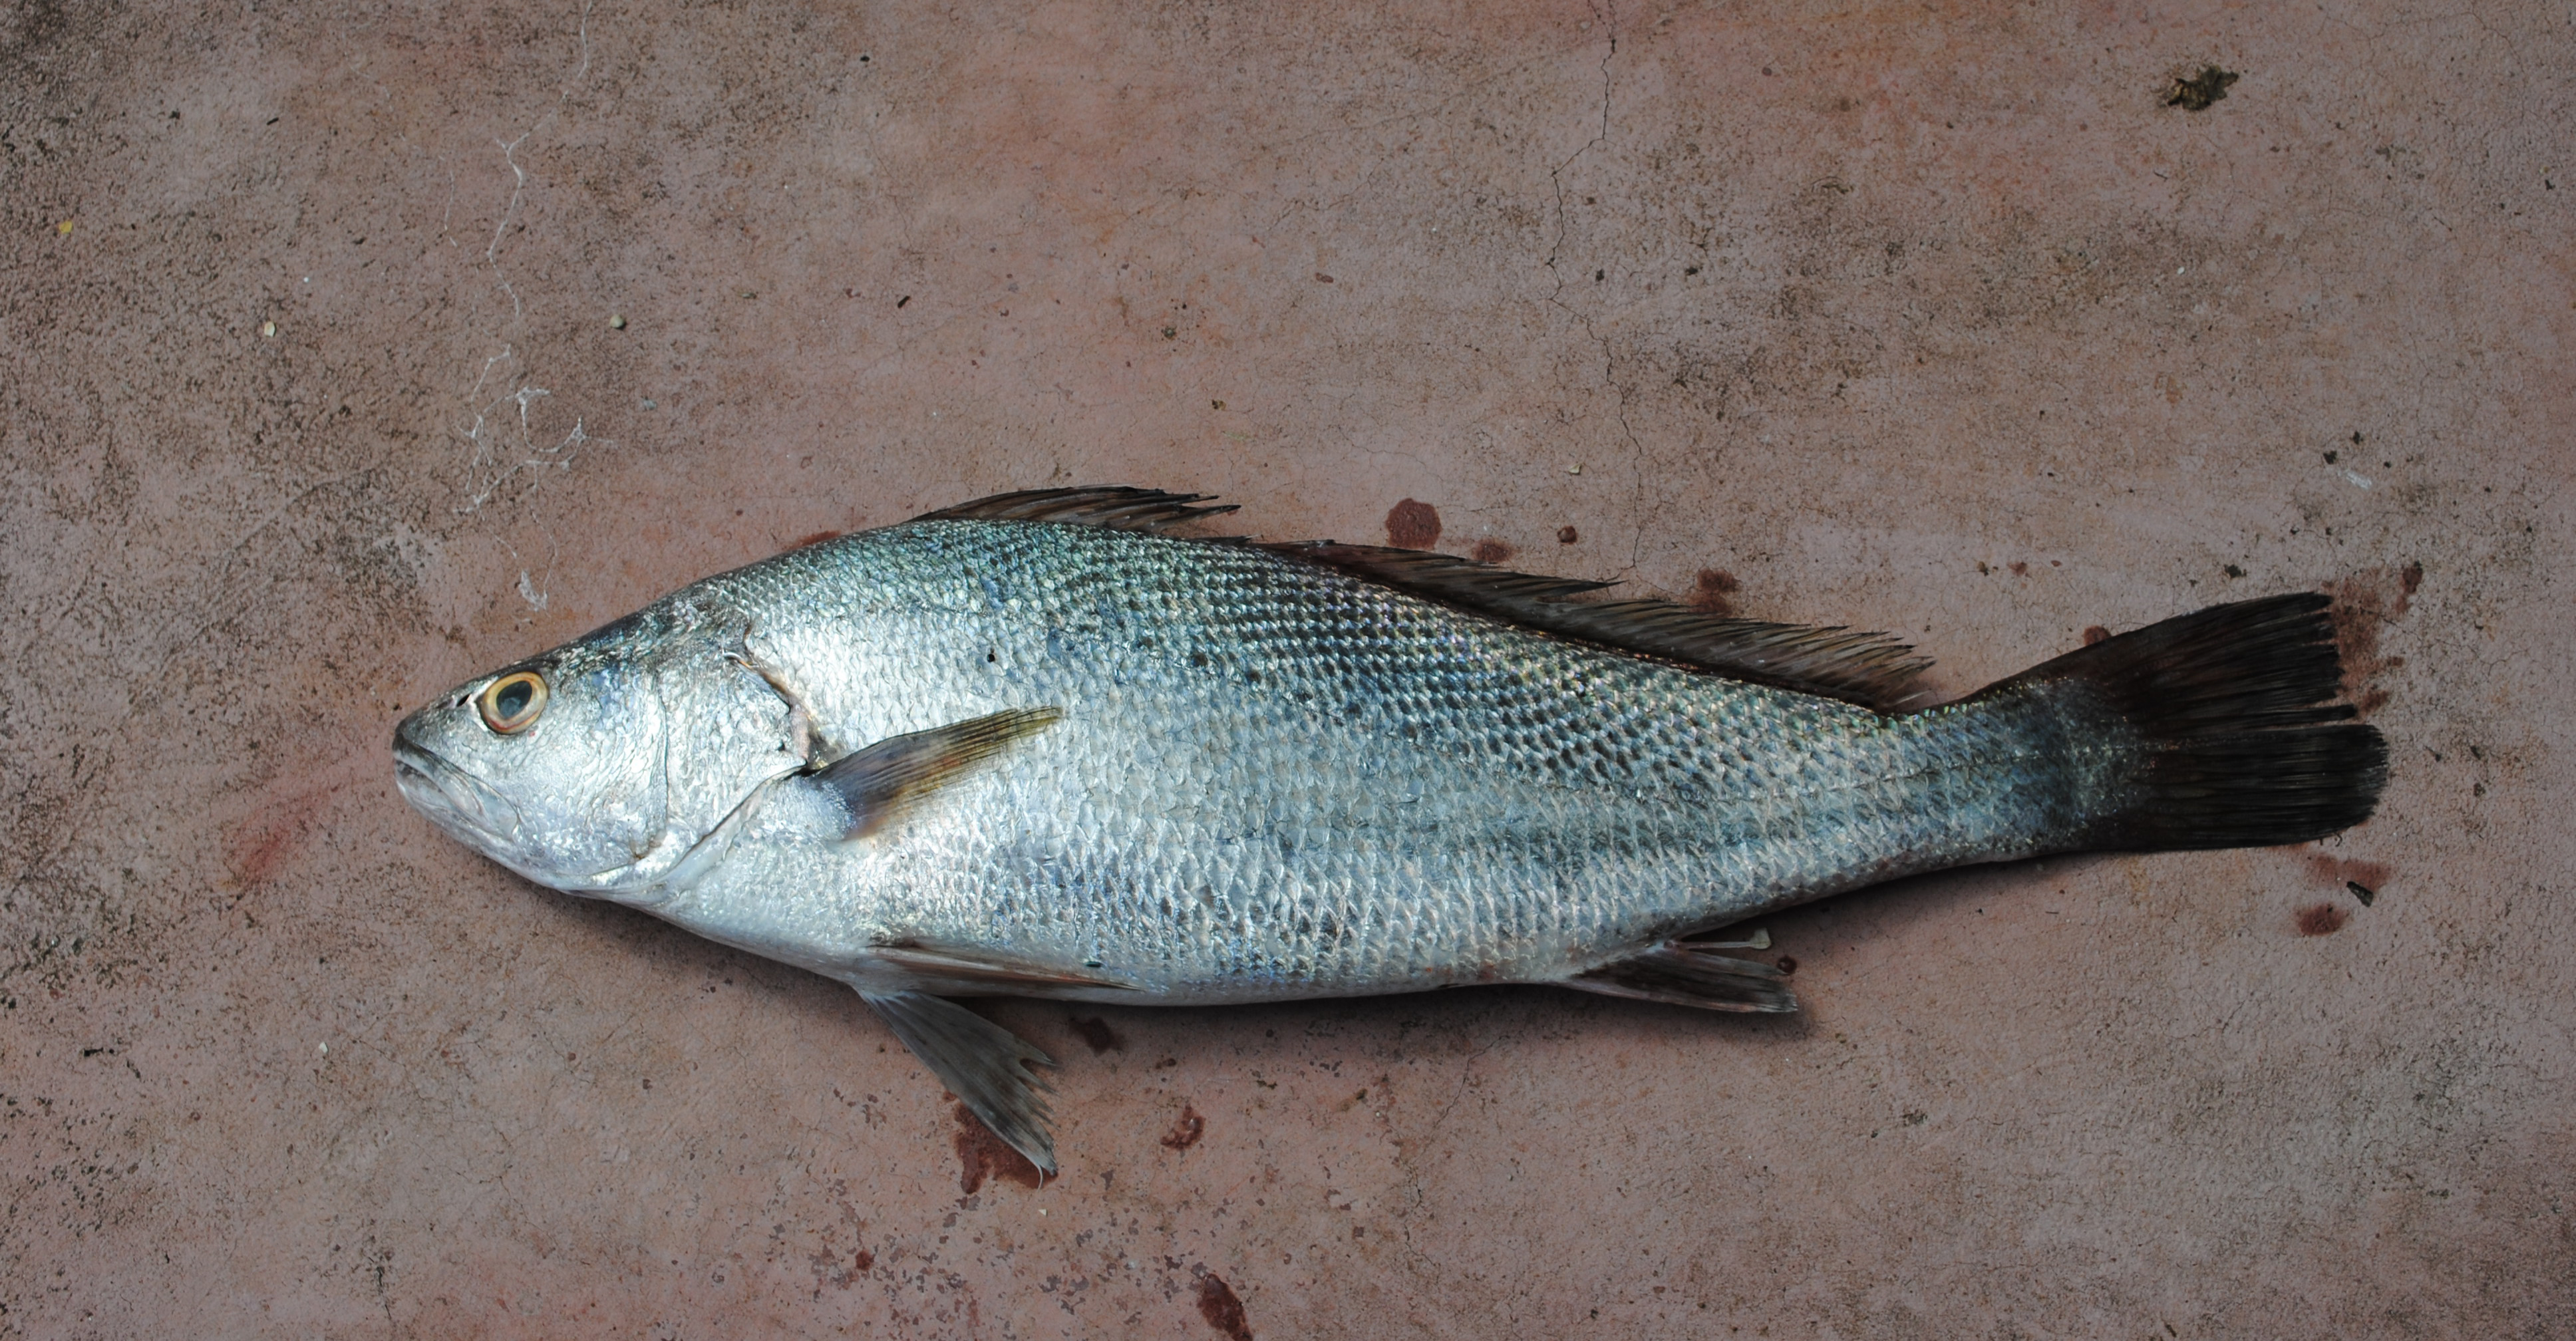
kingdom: Animalia
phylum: Chordata
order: Perciformes
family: Sciaenidae
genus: Argyrosomus
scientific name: Argyrosomus japonicus
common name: Japanese meagre
